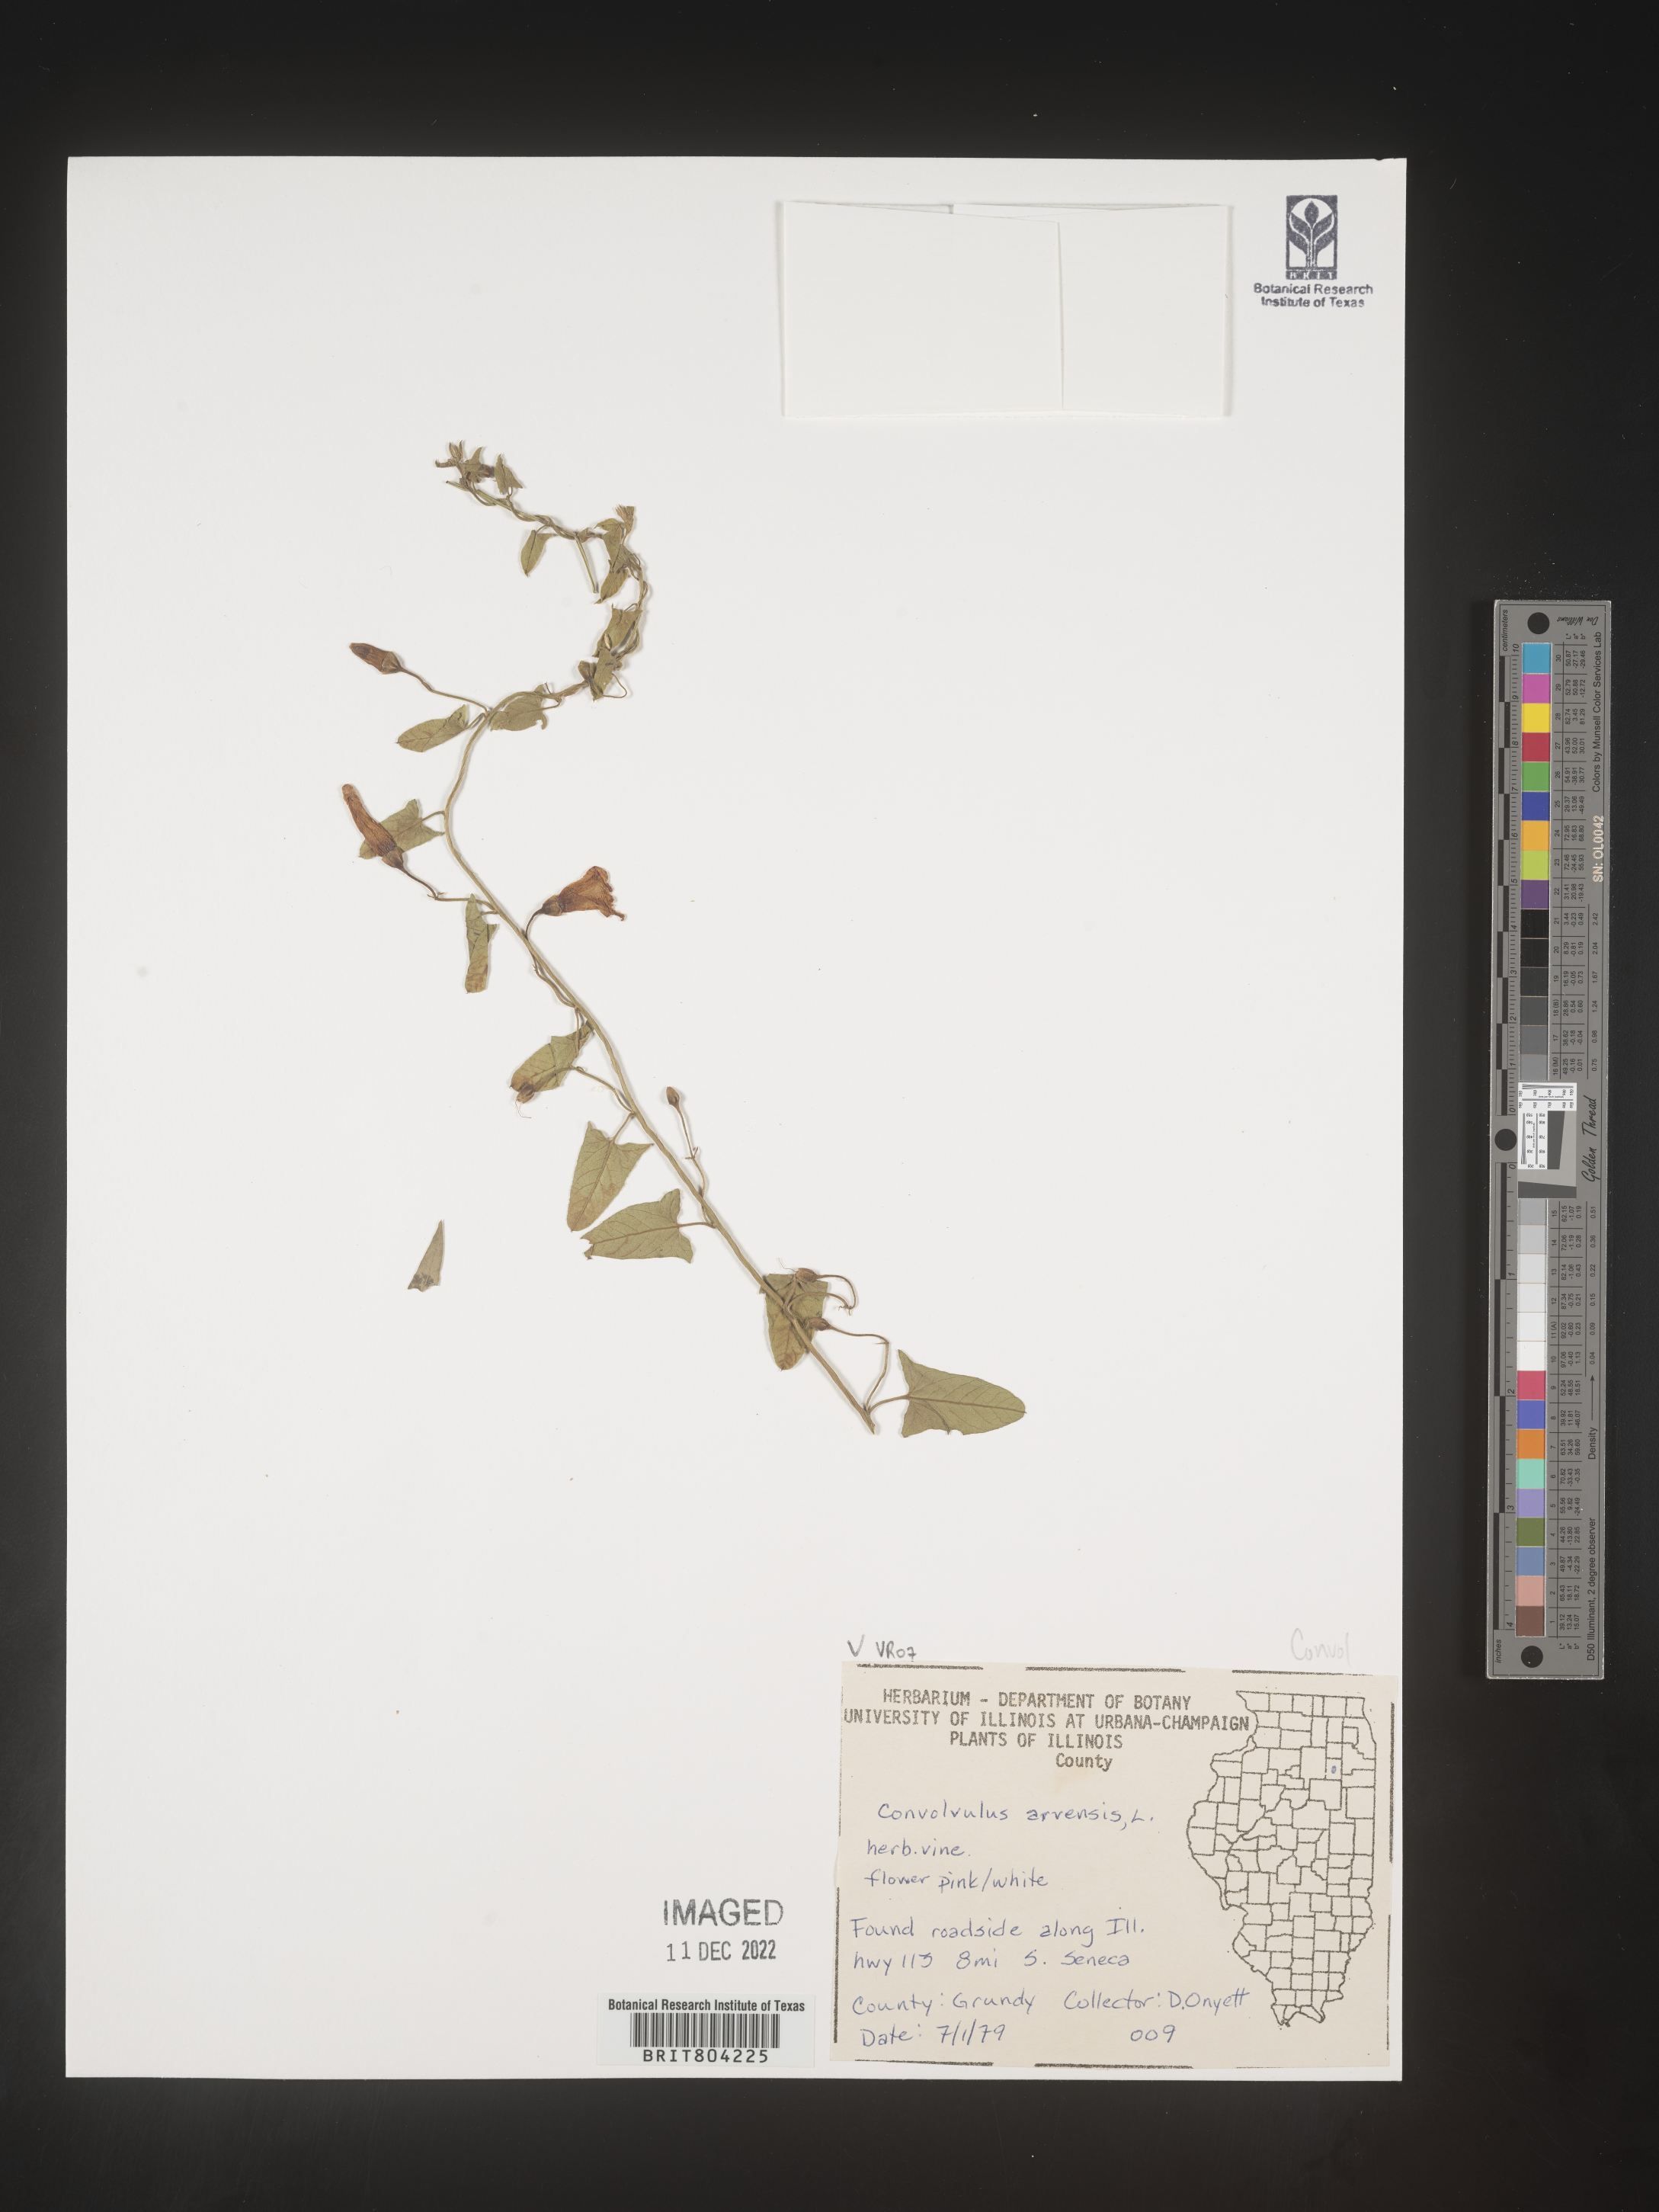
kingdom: Plantae
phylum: Tracheophyta
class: Magnoliopsida
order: Solanales
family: Convolvulaceae
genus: Convolvulus
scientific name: Convolvulus arvensis
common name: Field bindweed
